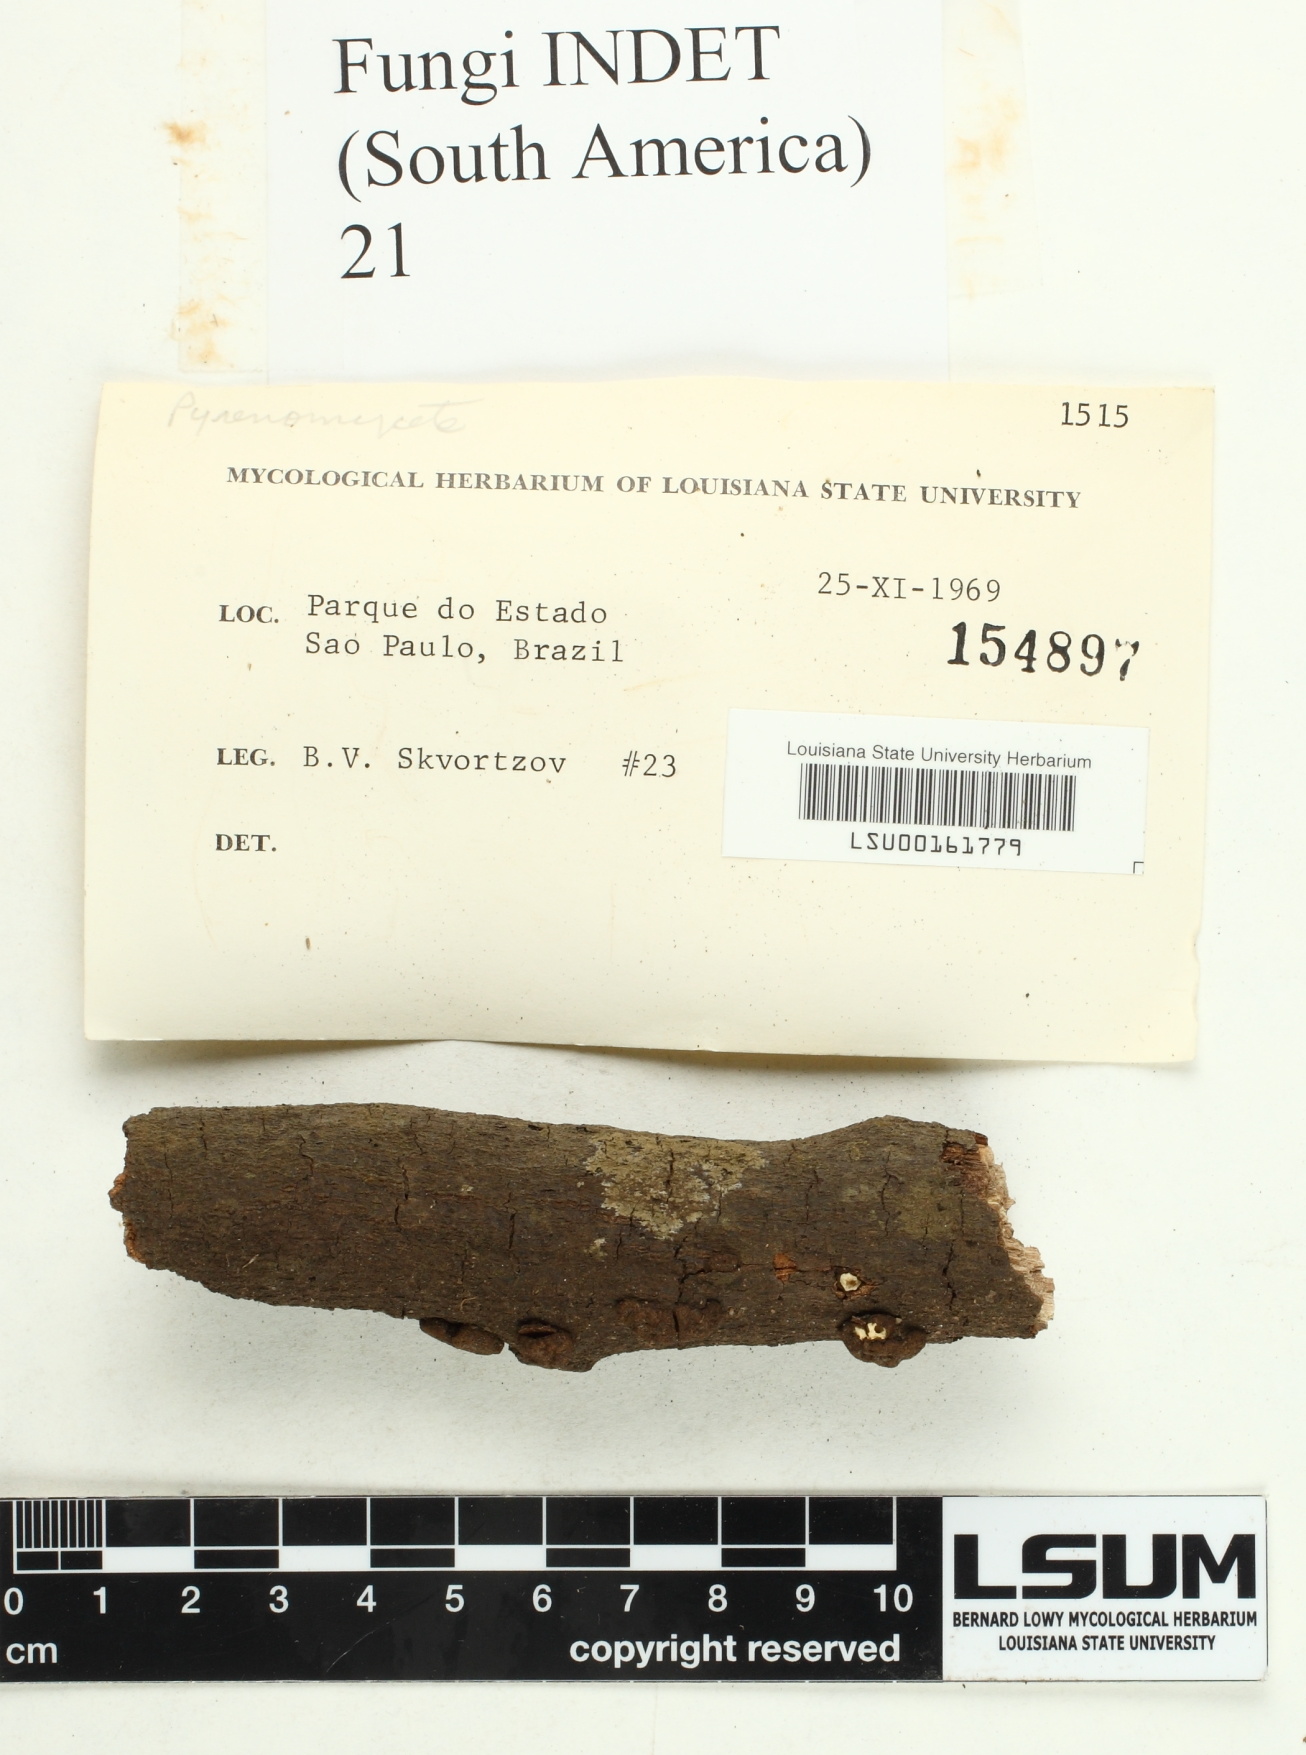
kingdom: Fungi
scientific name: Fungi
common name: Fungi
